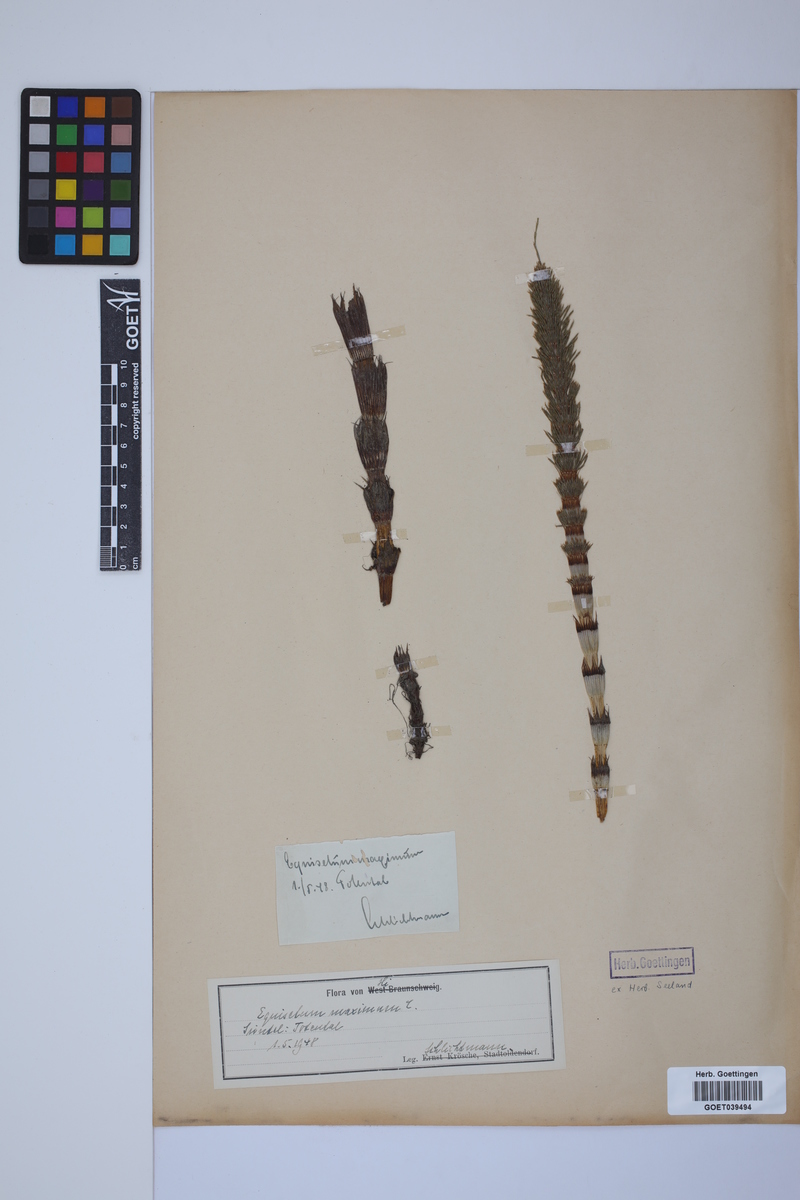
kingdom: Plantae
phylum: Tracheophyta
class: Polypodiopsida
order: Equisetales
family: Equisetaceae
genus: Equisetum
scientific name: Equisetum telmateia
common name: Great horsetail
